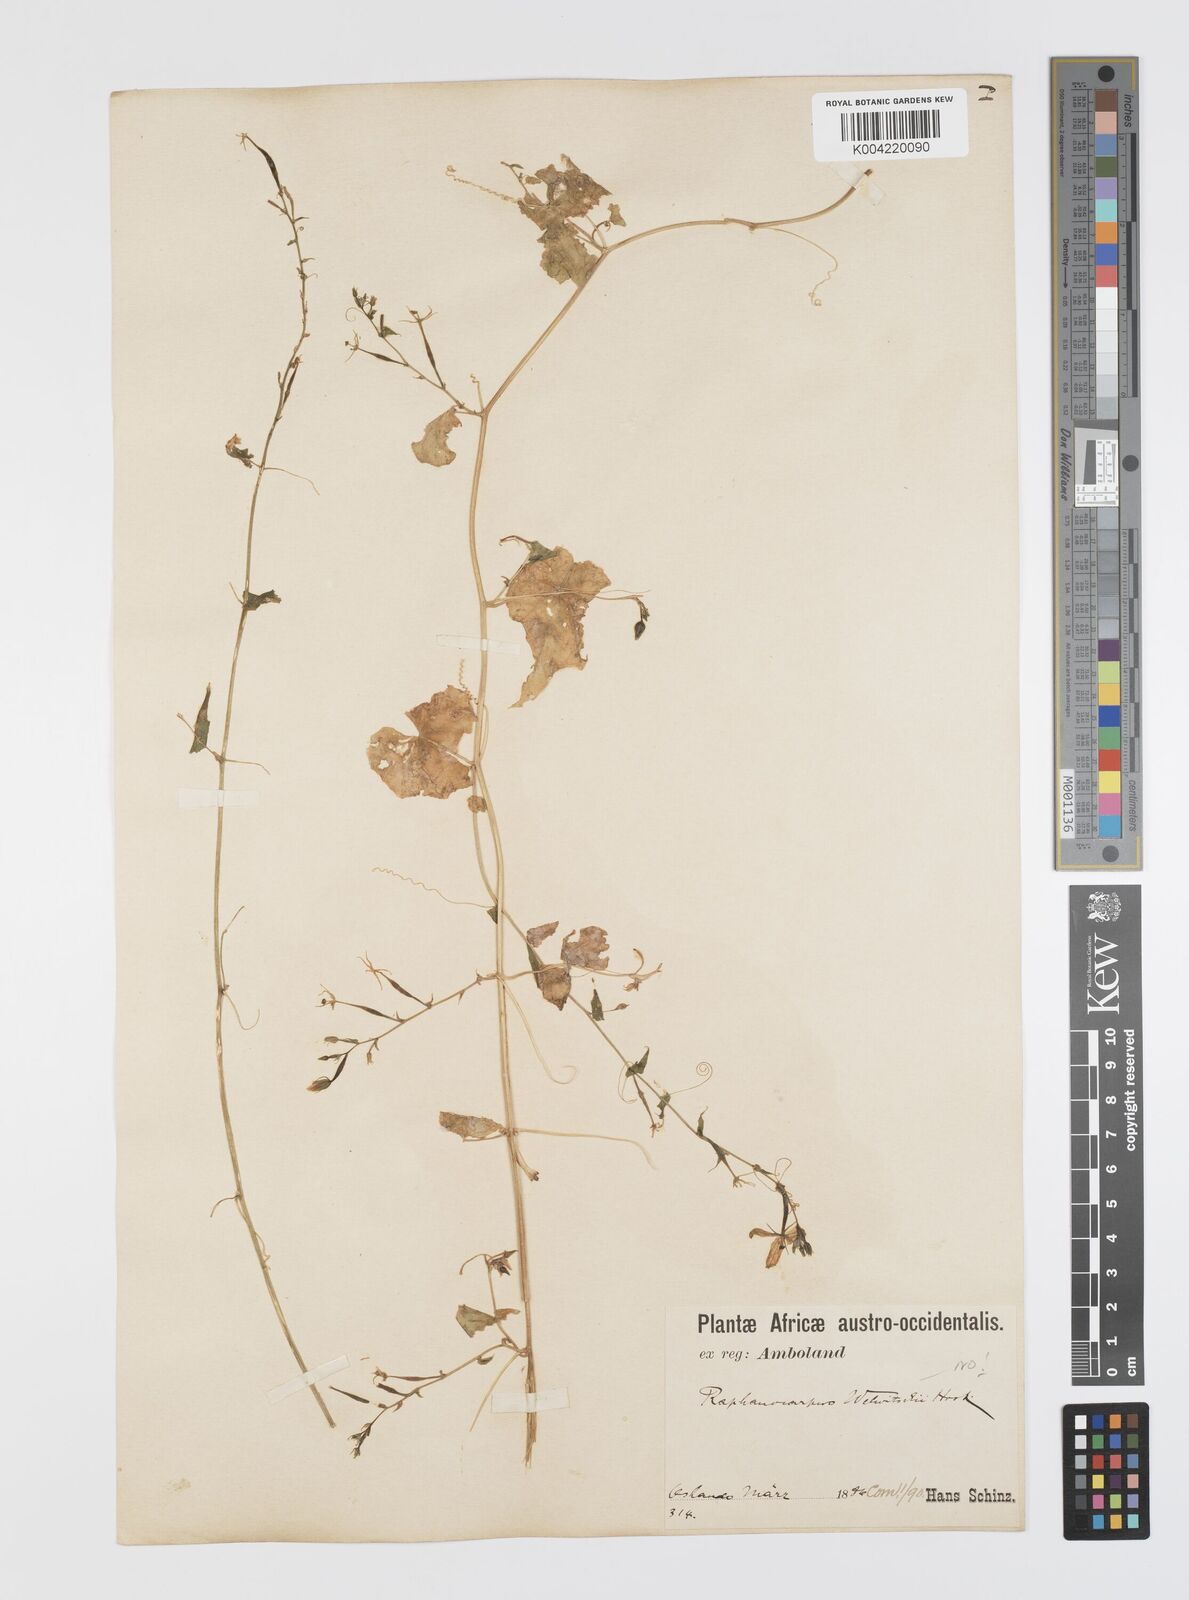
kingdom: Plantae
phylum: Tracheophyta
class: Magnoliopsida
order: Cucurbitales
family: Cucurbitaceae
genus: Momordica
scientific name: Momordica
